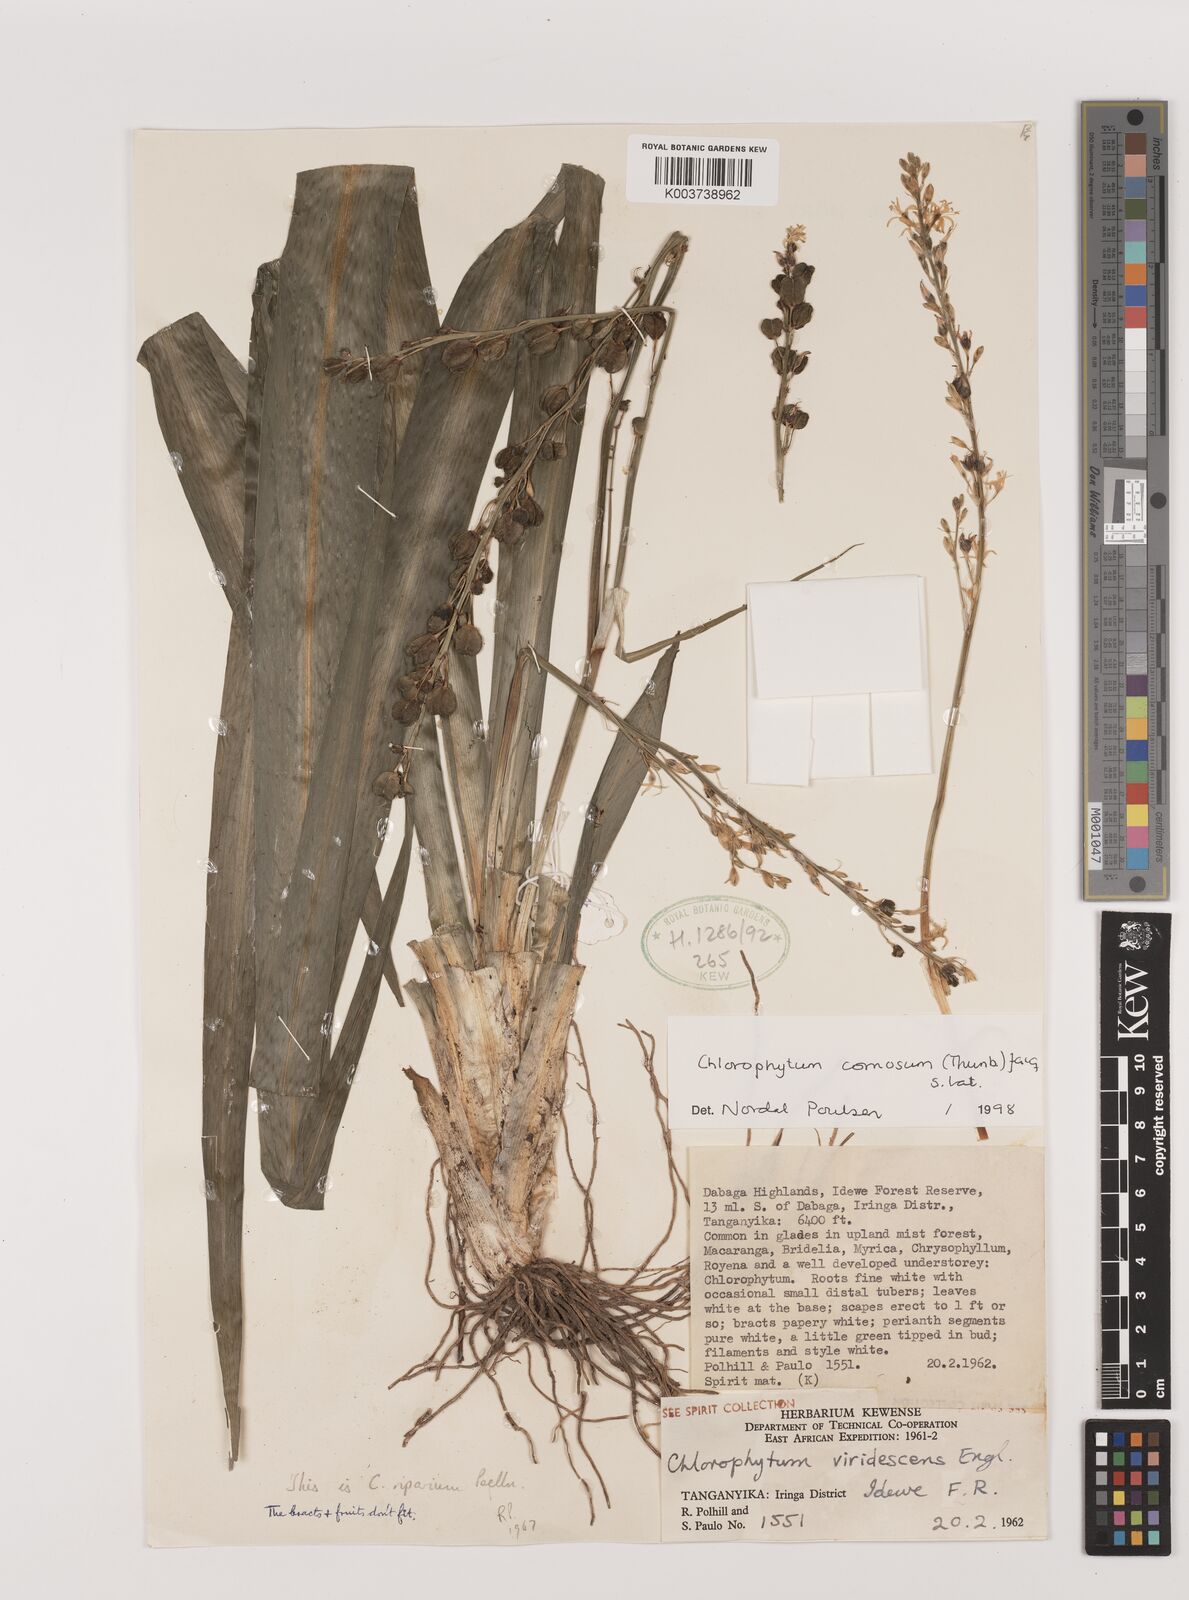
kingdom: Plantae
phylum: Tracheophyta
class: Liliopsida
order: Asparagales
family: Asparagaceae
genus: Chlorophytum
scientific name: Chlorophytum comosum
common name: Spider plant
